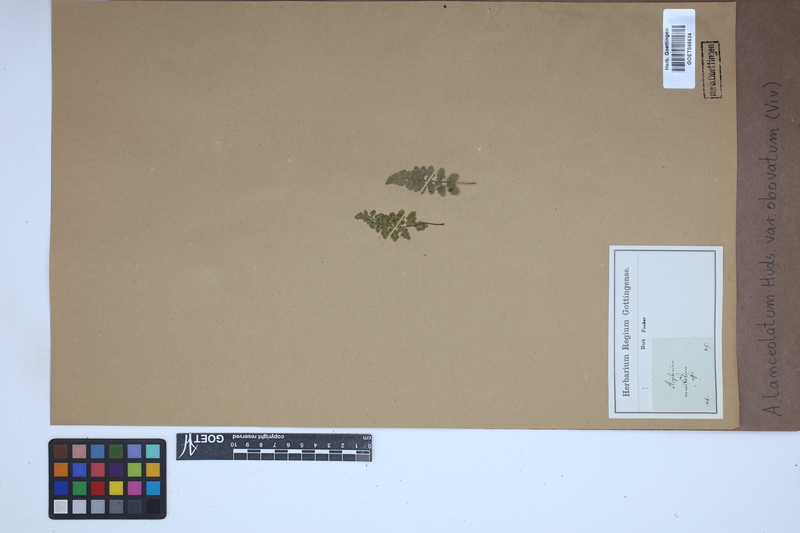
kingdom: Plantae
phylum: Tracheophyta
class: Polypodiopsida
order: Polypodiales
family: Aspleniaceae
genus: Asplenium
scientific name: Asplenium obovatum
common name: Lanceolate spleenwort
